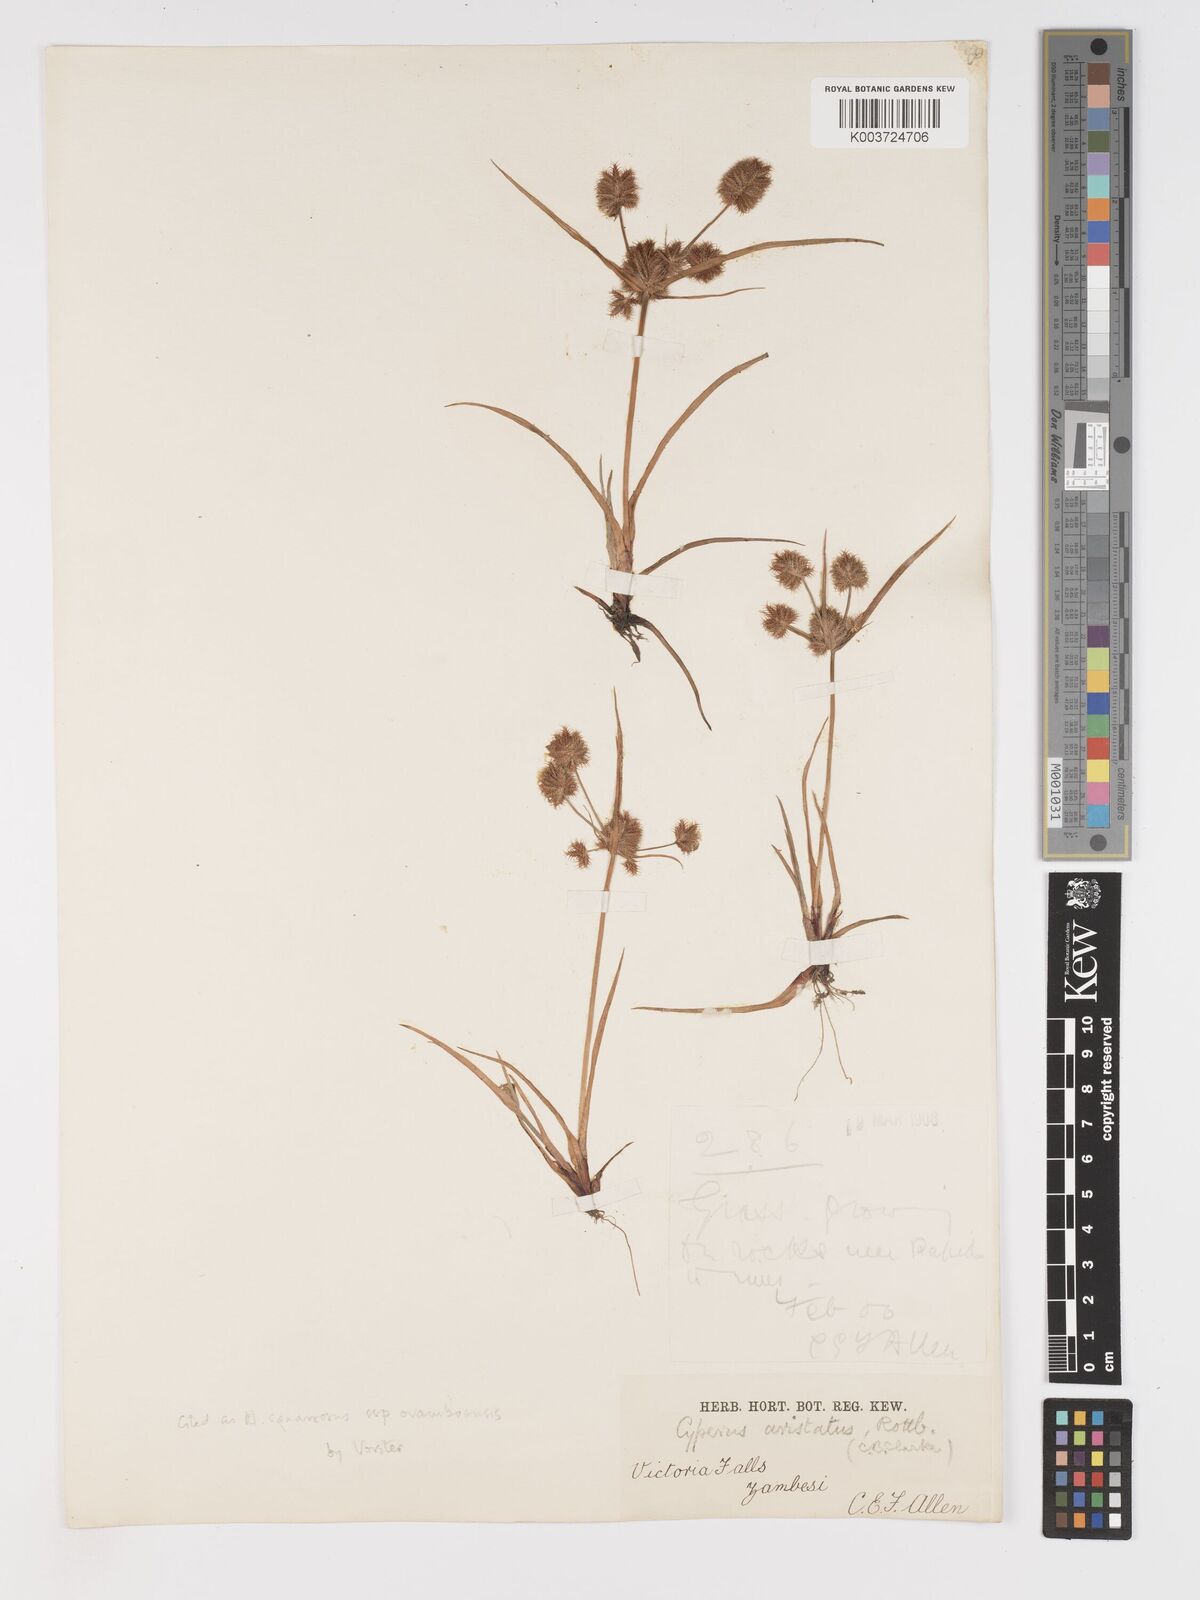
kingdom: Plantae
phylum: Tracheophyta
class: Liliopsida
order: Poales
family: Cyperaceae
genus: Cyperus
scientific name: Cyperus squarrosus
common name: Awned cyperus
